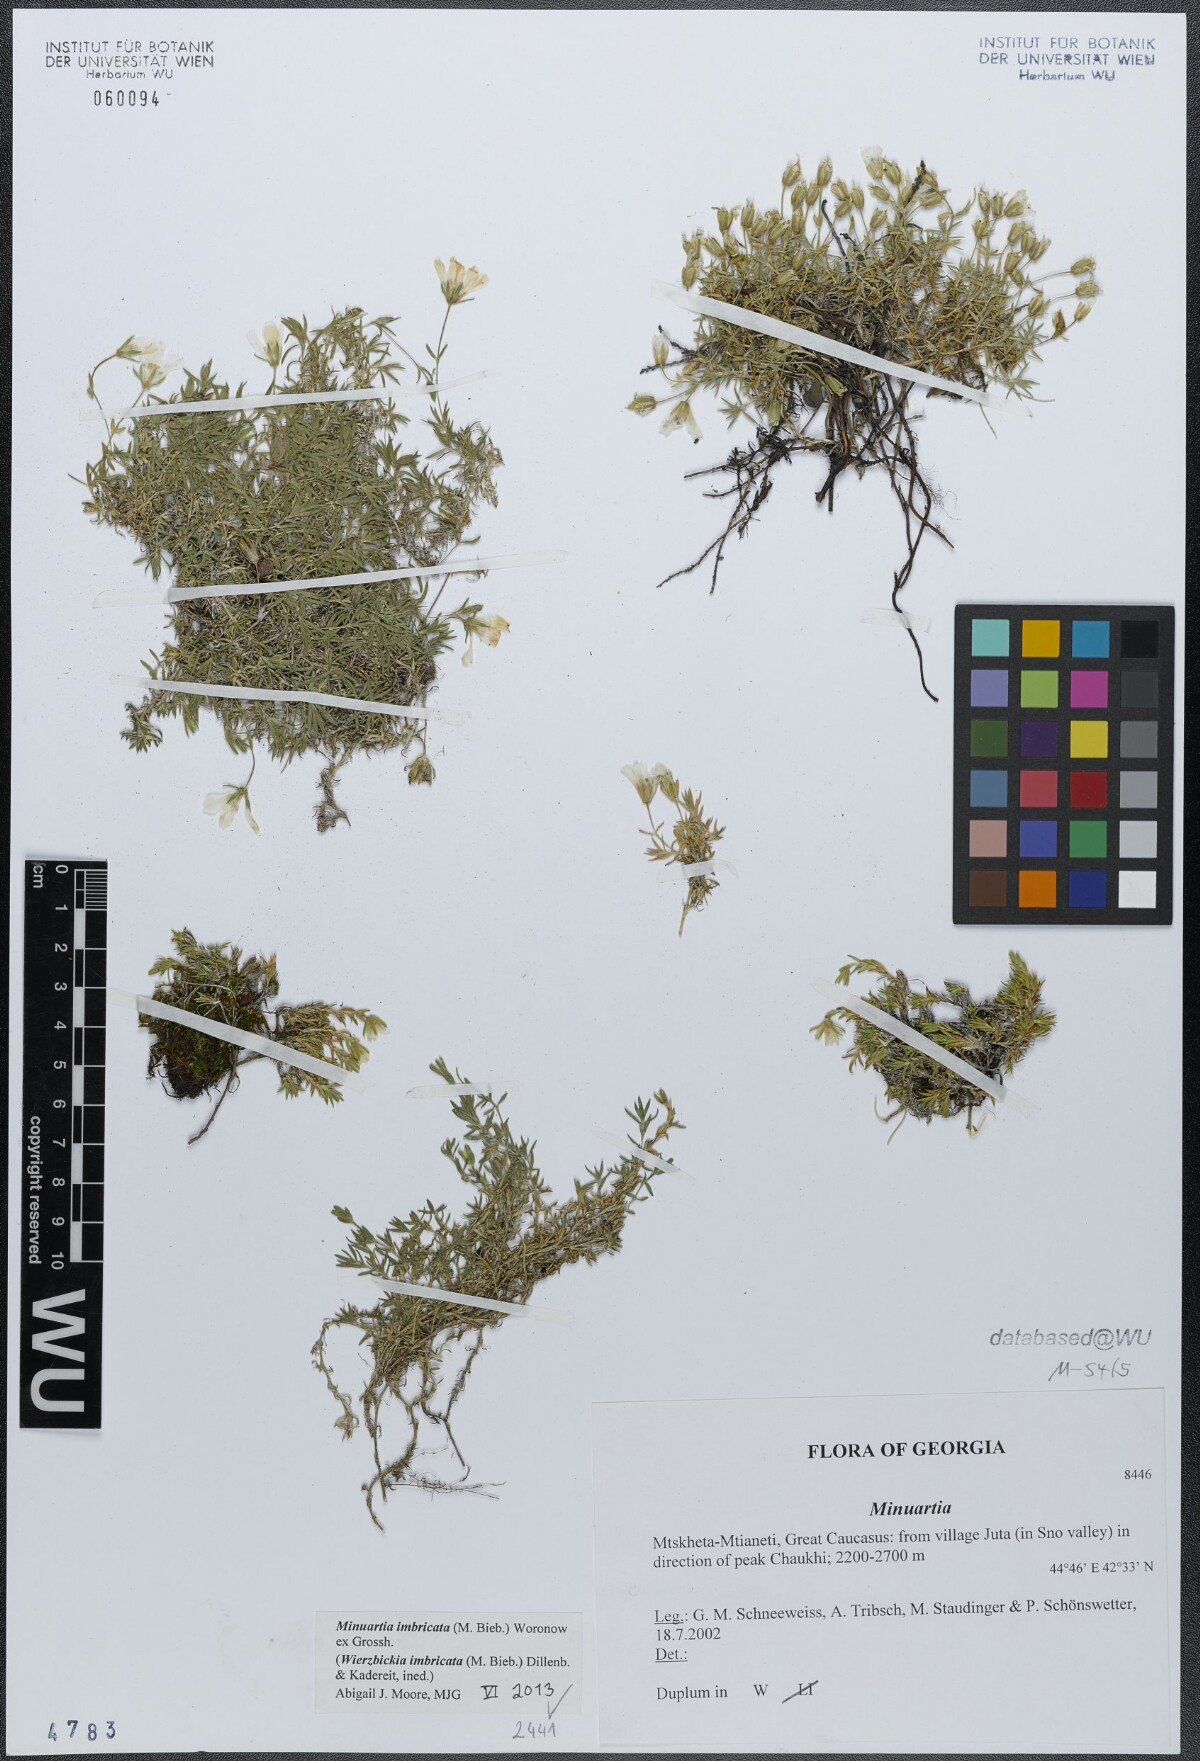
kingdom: Plantae
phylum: Tracheophyta
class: Magnoliopsida
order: Caryophyllales
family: Caryophyllaceae
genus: Pseudocherleria
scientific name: Pseudocherleria imbricata
